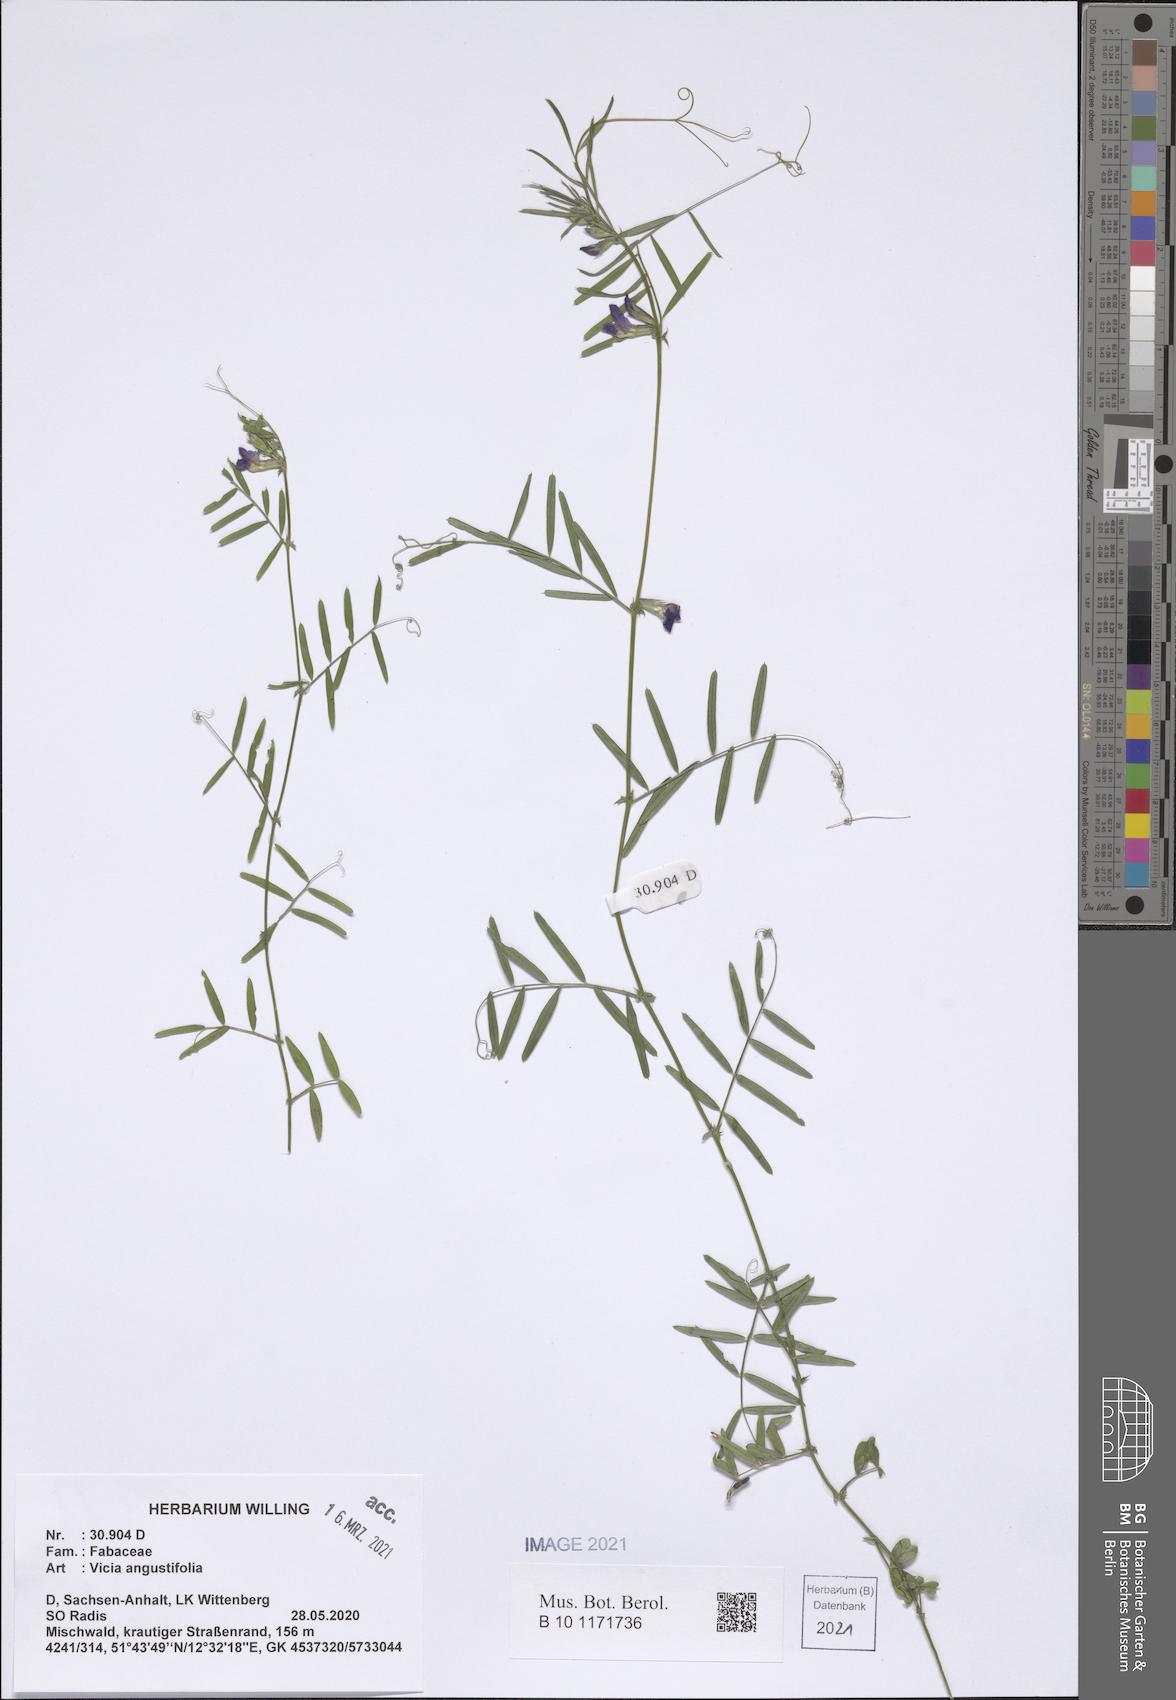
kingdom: Plantae
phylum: Tracheophyta
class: Magnoliopsida
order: Fabales
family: Fabaceae
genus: Vicia
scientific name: Vicia sativa
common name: Garden vetch
